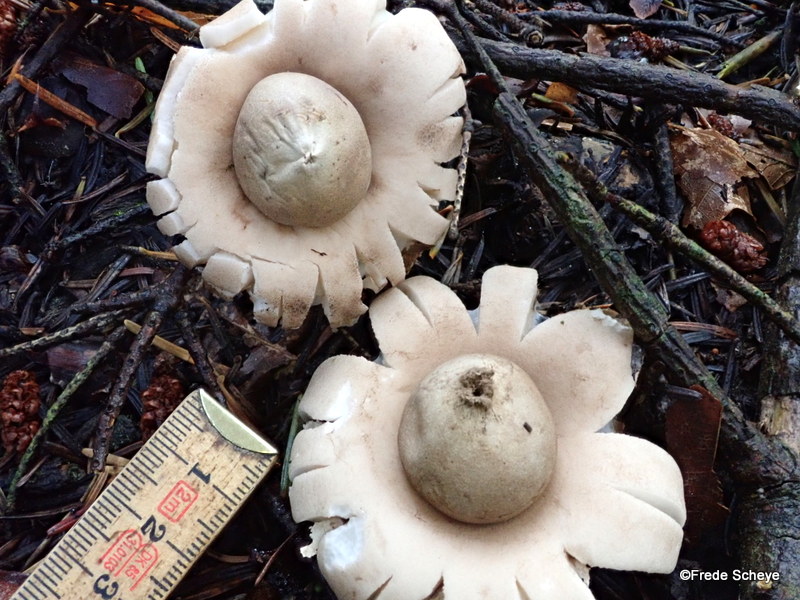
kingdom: Fungi
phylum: Basidiomycota
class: Agaricomycetes
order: Geastrales
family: Geastraceae
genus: Geastrum
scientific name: Geastrum fimbriatum
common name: frynset stjernebold
